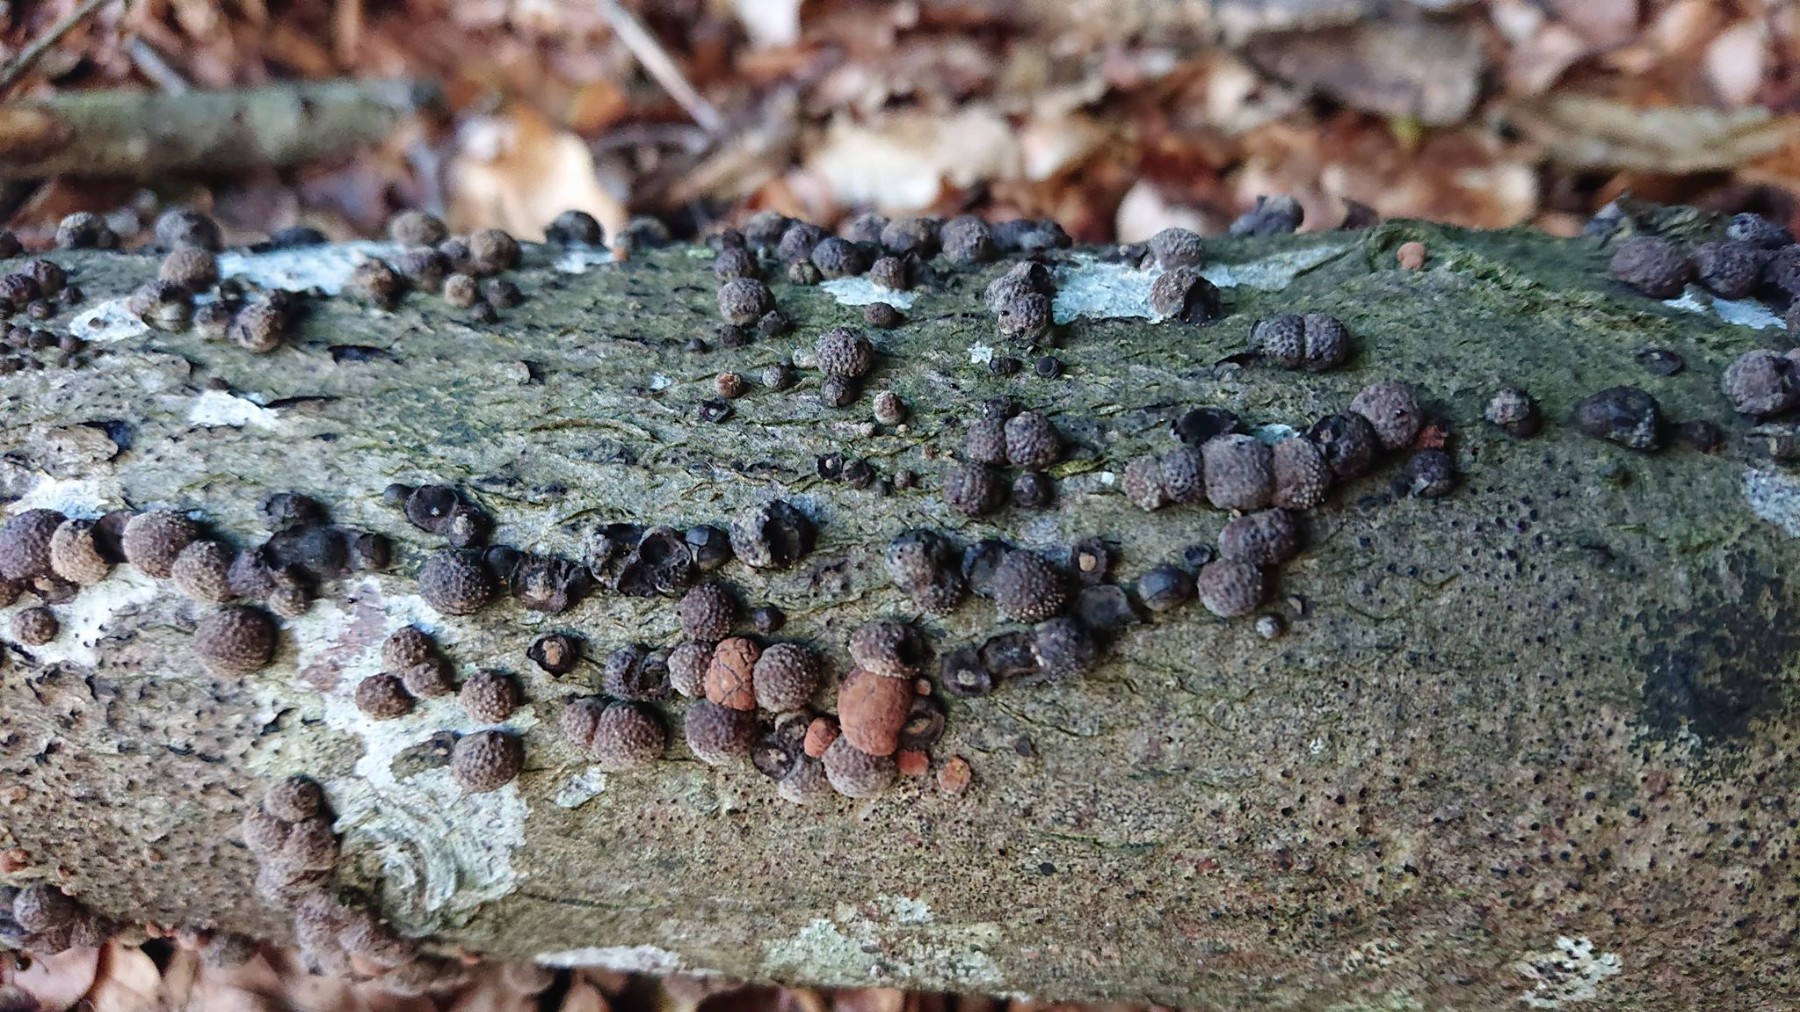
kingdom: Fungi
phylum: Ascomycota
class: Sordariomycetes
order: Xylariales
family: Hypoxylaceae
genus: Hypoxylon
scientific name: Hypoxylon fragiforme
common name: kuljordbær
